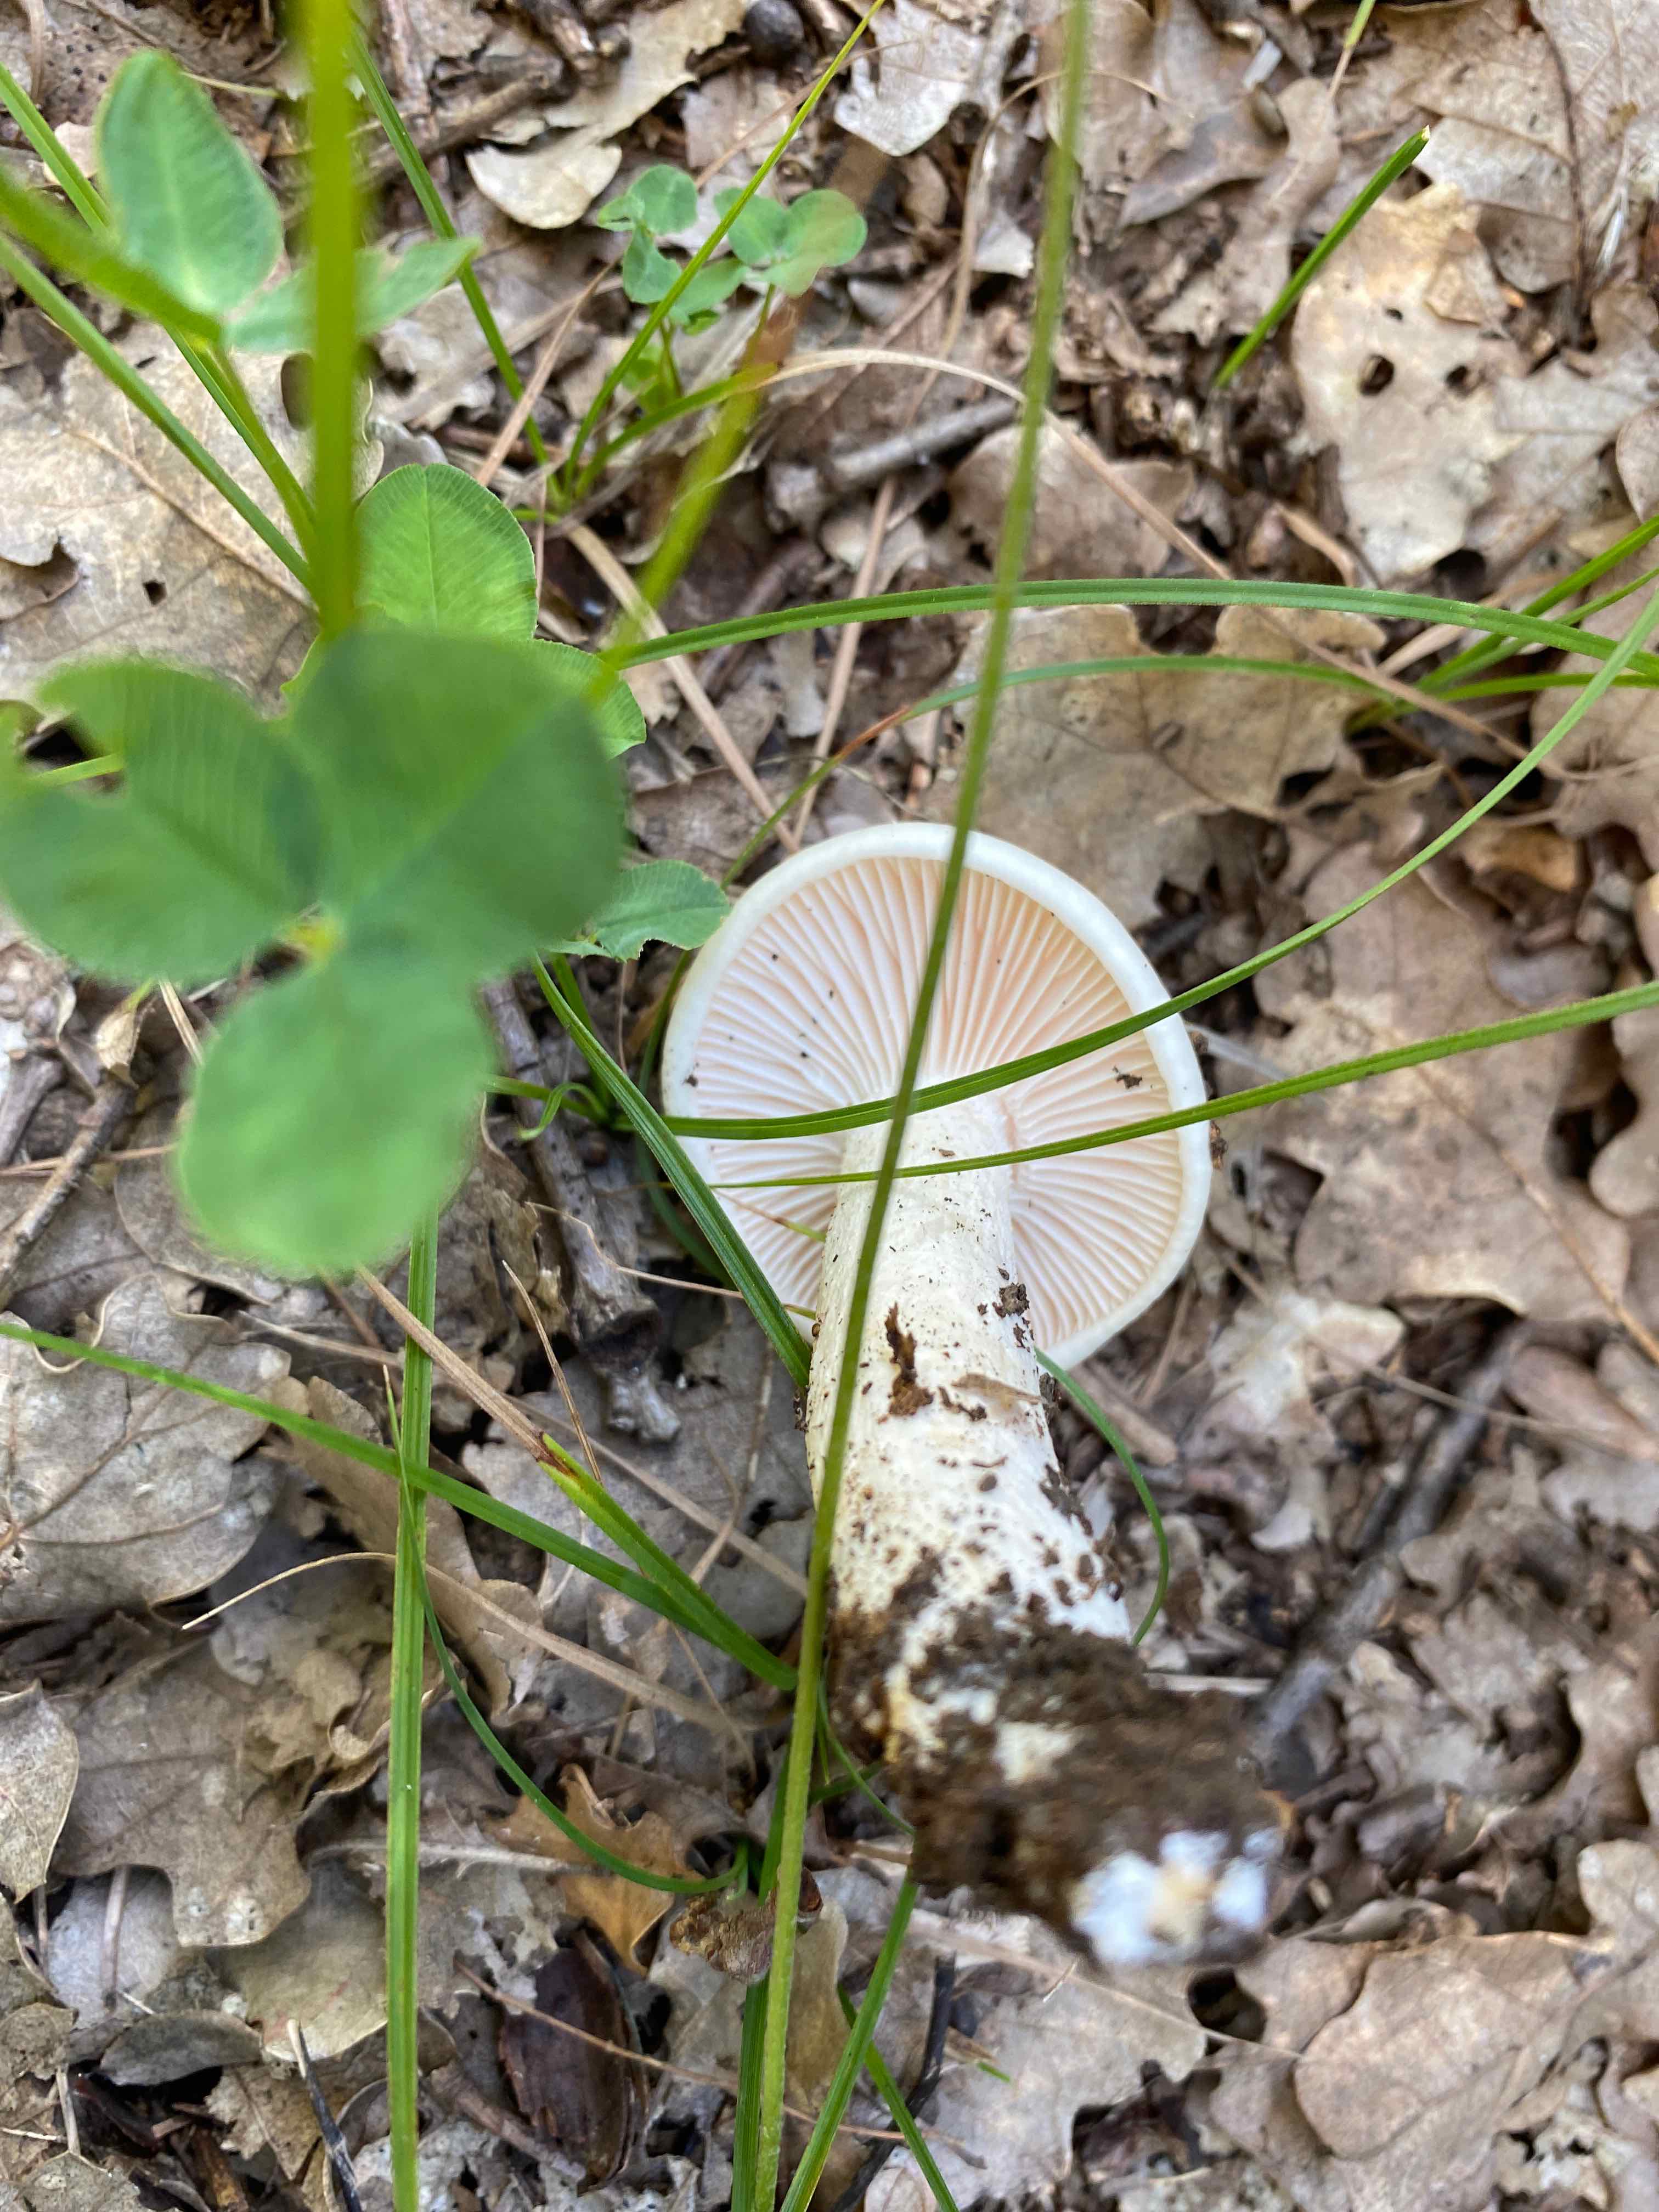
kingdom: Fungi
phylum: Basidiomycota
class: Agaricomycetes
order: Agaricales
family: Hygrophoraceae
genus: Hygrophorus
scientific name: Hygrophorus
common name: sneglehat
